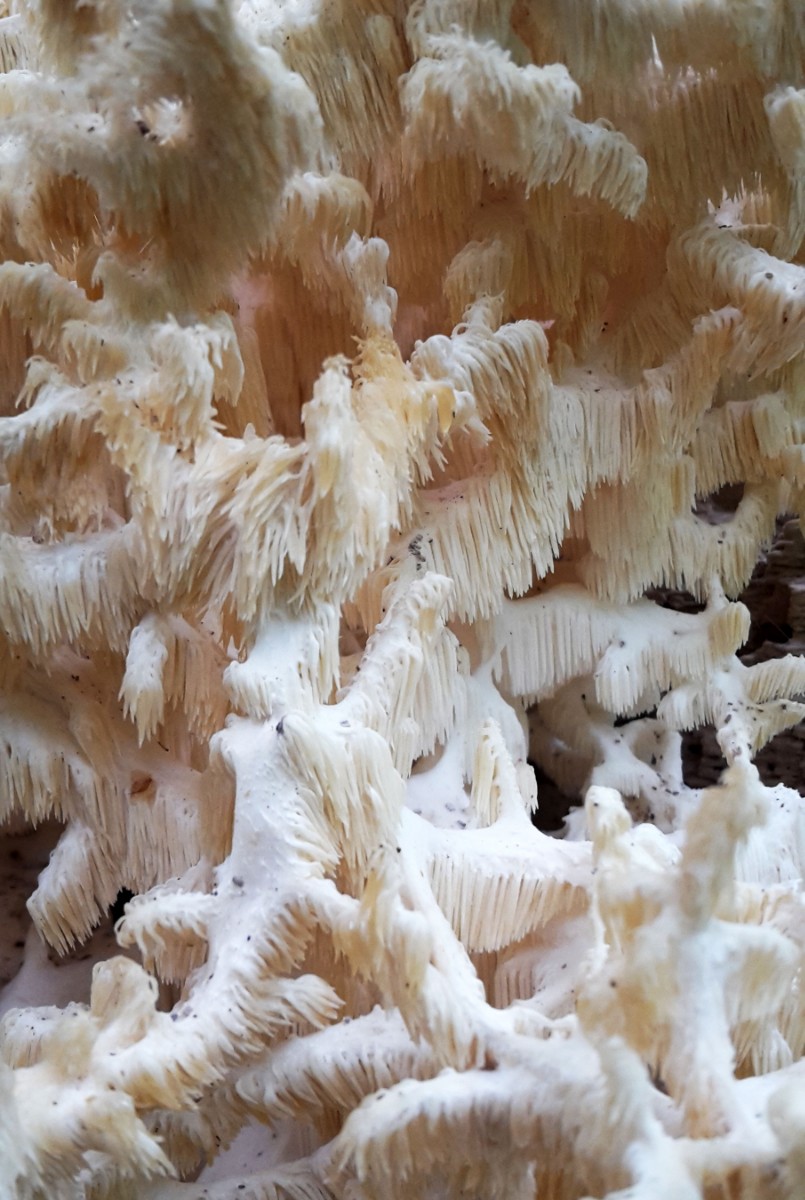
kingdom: Fungi
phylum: Basidiomycota
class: Agaricomycetes
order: Russulales
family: Hericiaceae
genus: Hericium
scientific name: Hericium coralloides
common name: koralpigsvamp
